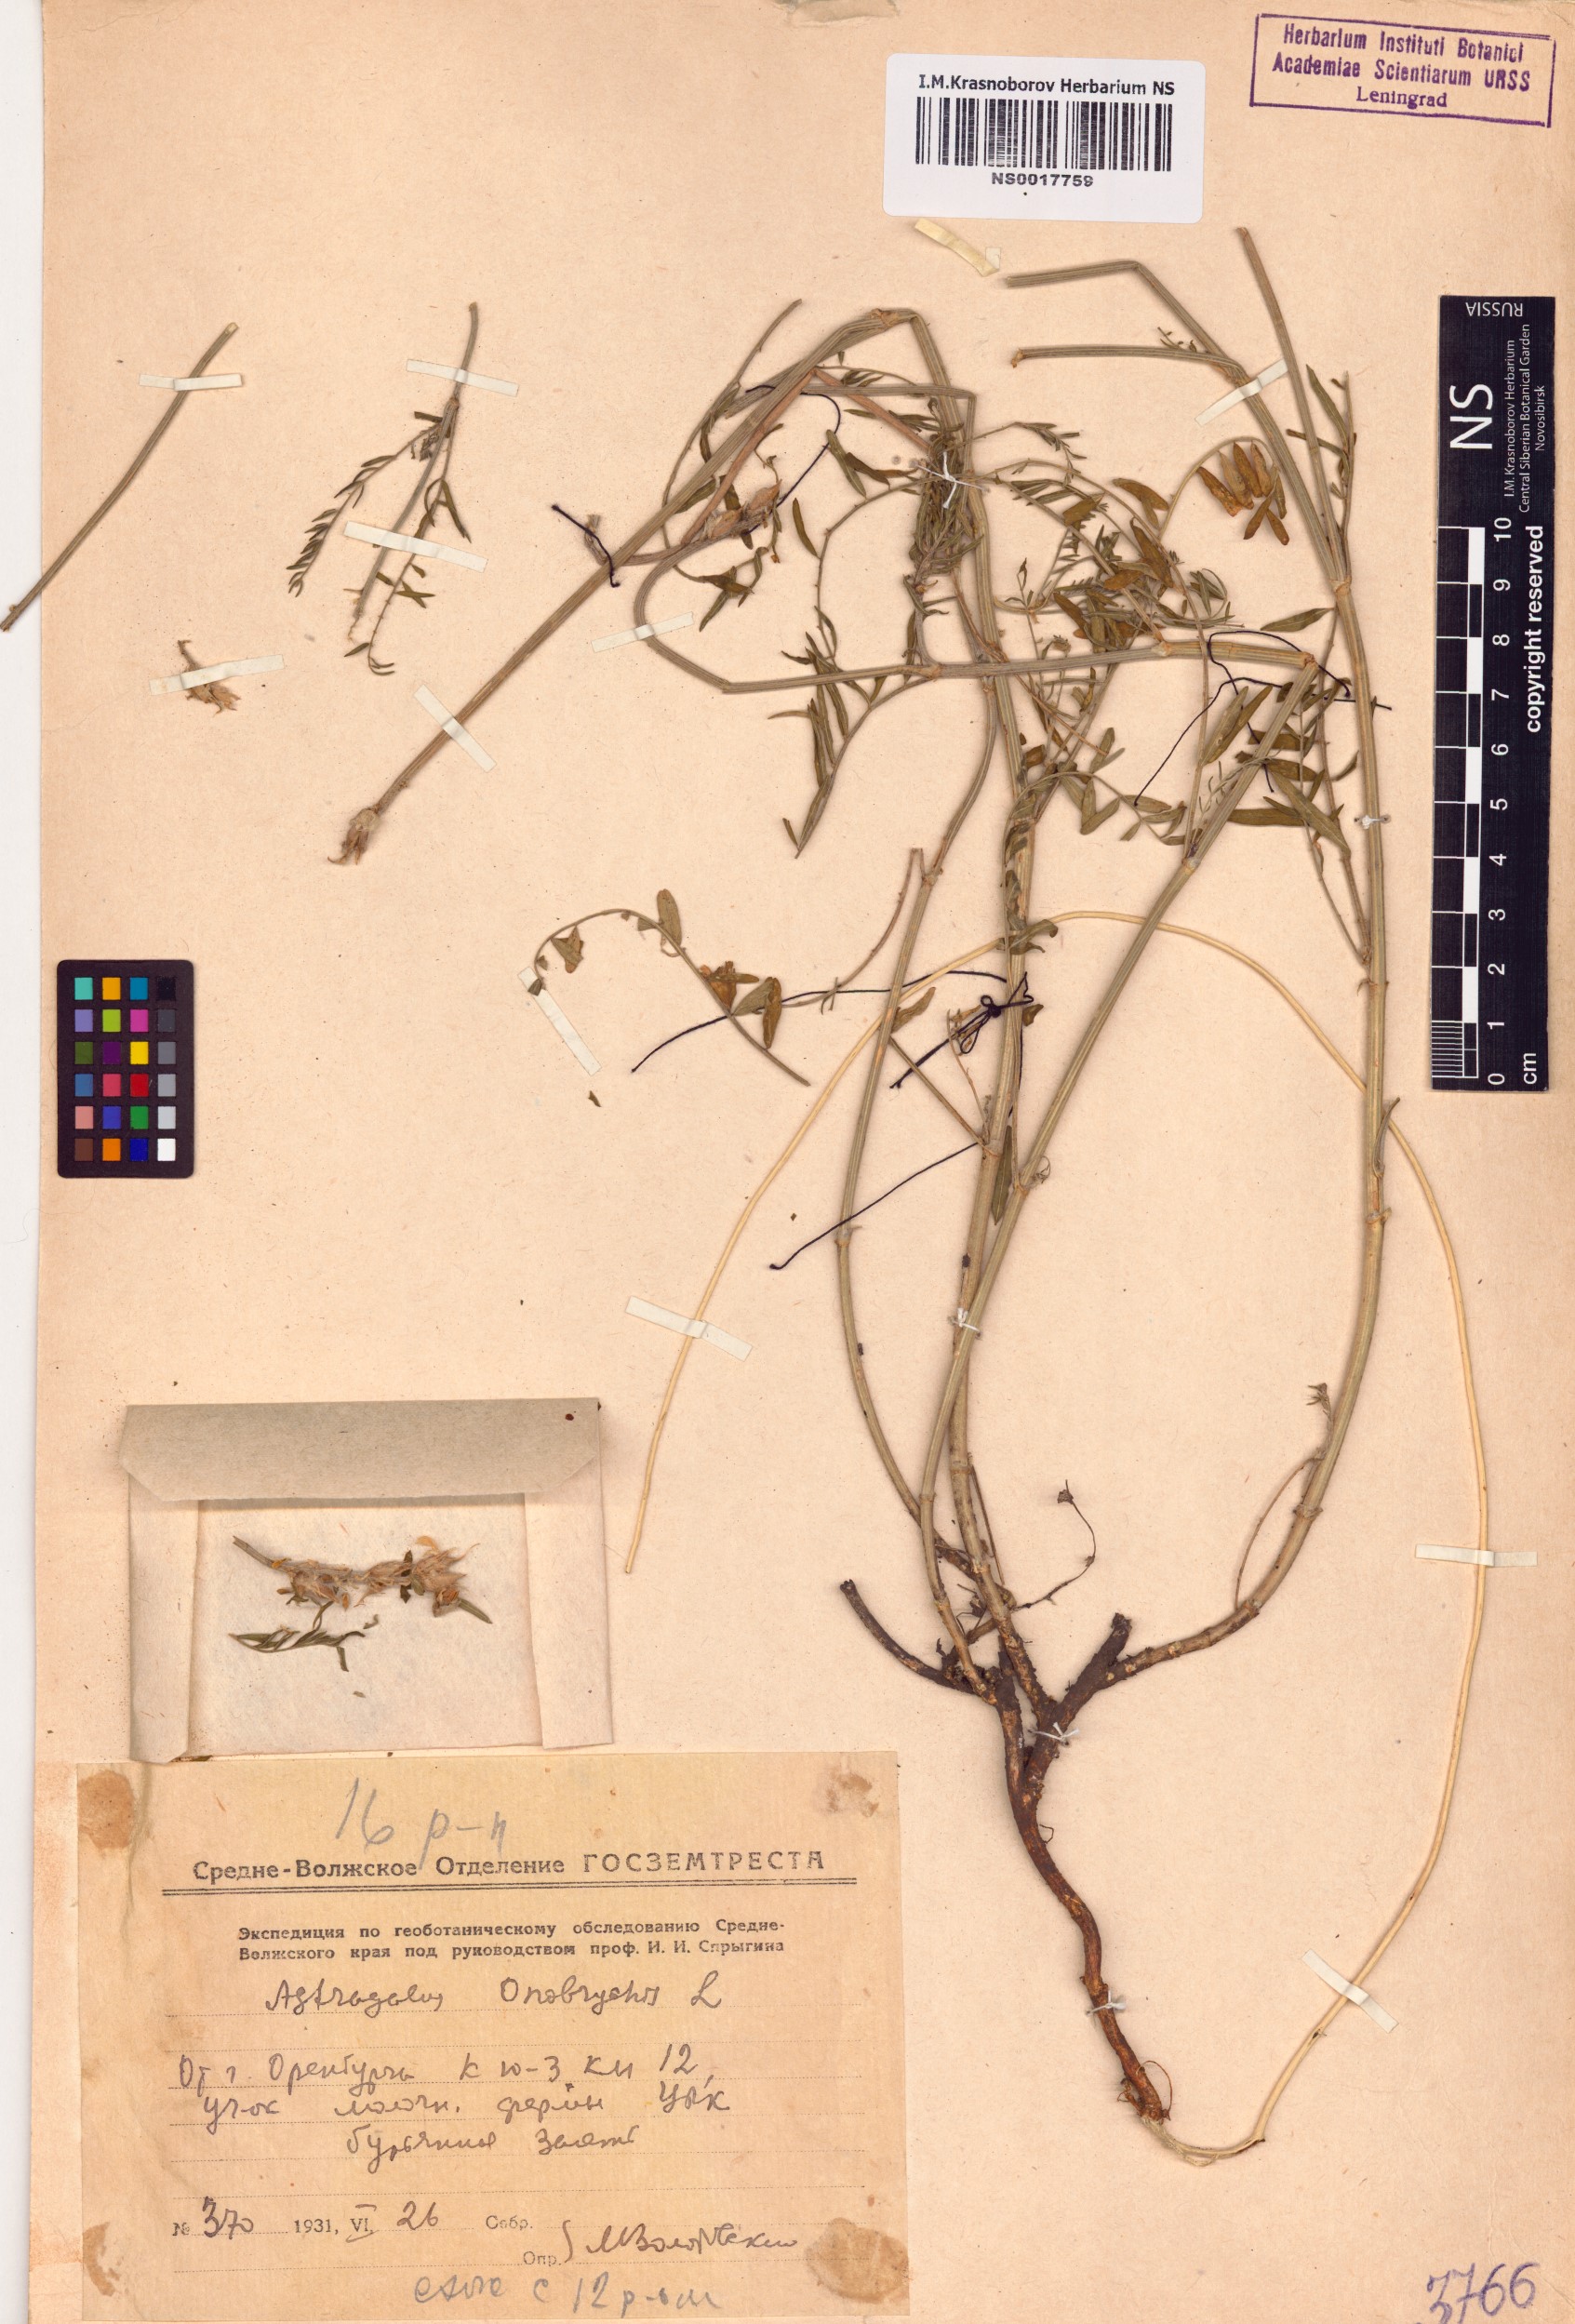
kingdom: Plantae
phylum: Tracheophyta
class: Magnoliopsida
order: Fabales
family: Fabaceae
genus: Astragalus
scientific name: Astragalus onobrychis
